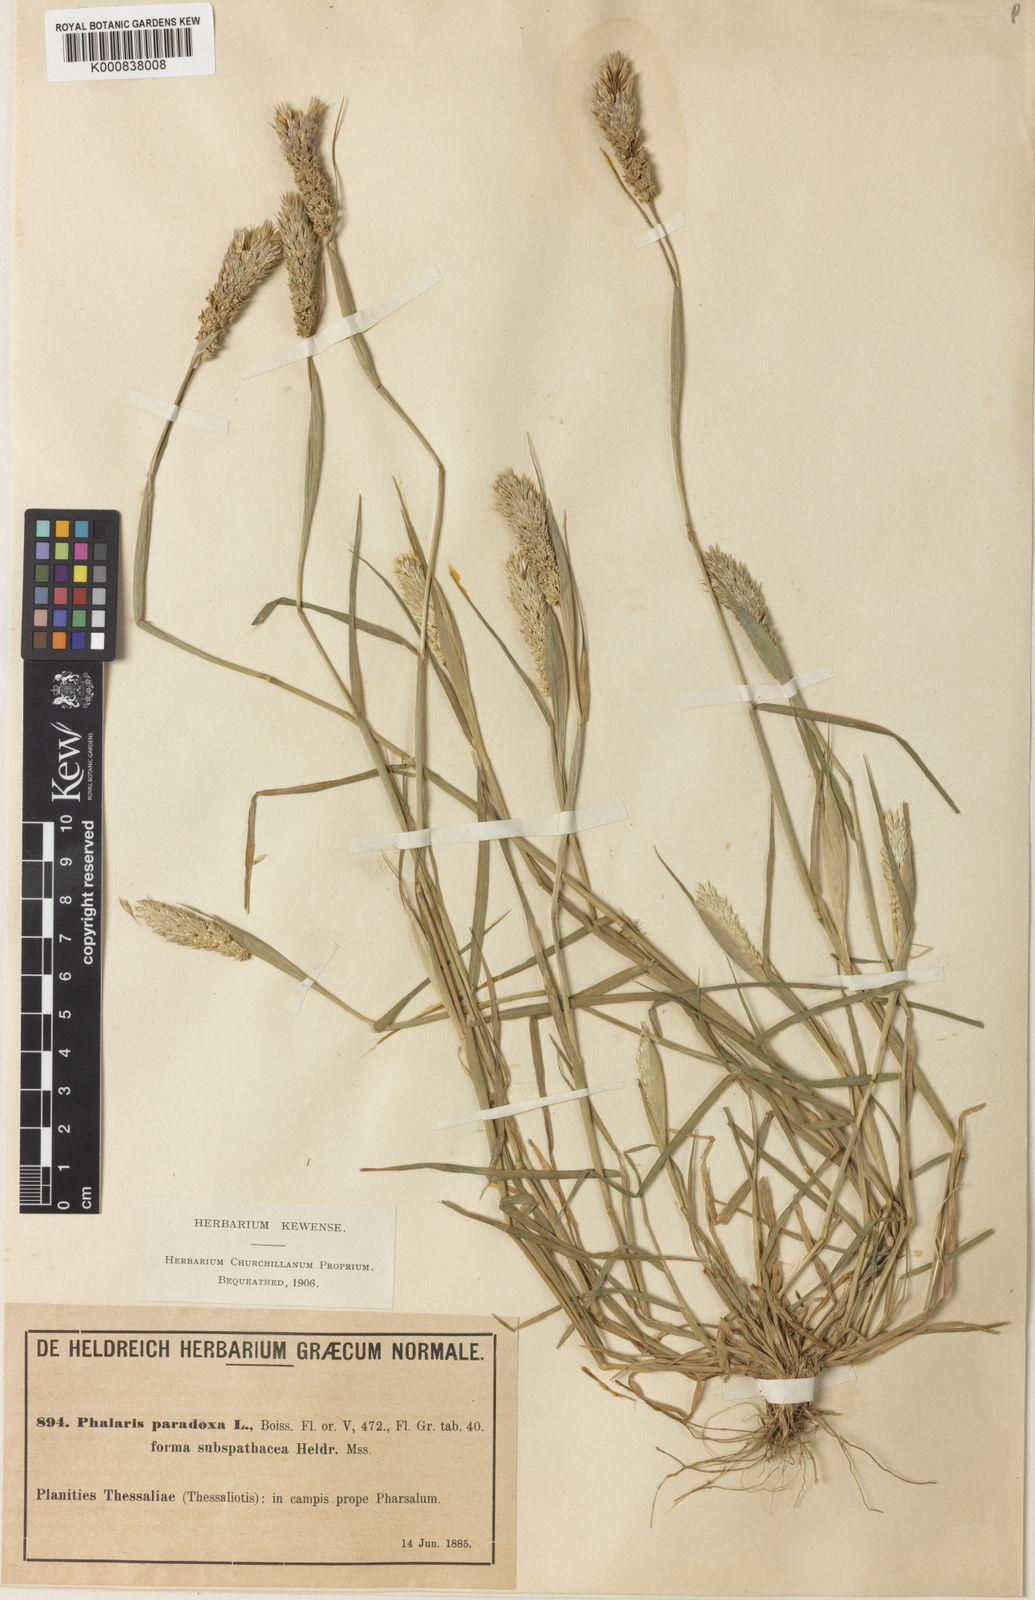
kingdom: Plantae
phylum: Tracheophyta
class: Liliopsida
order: Poales
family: Poaceae
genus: Phalaris
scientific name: Phalaris paradoxa
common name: Awned canary-grass
